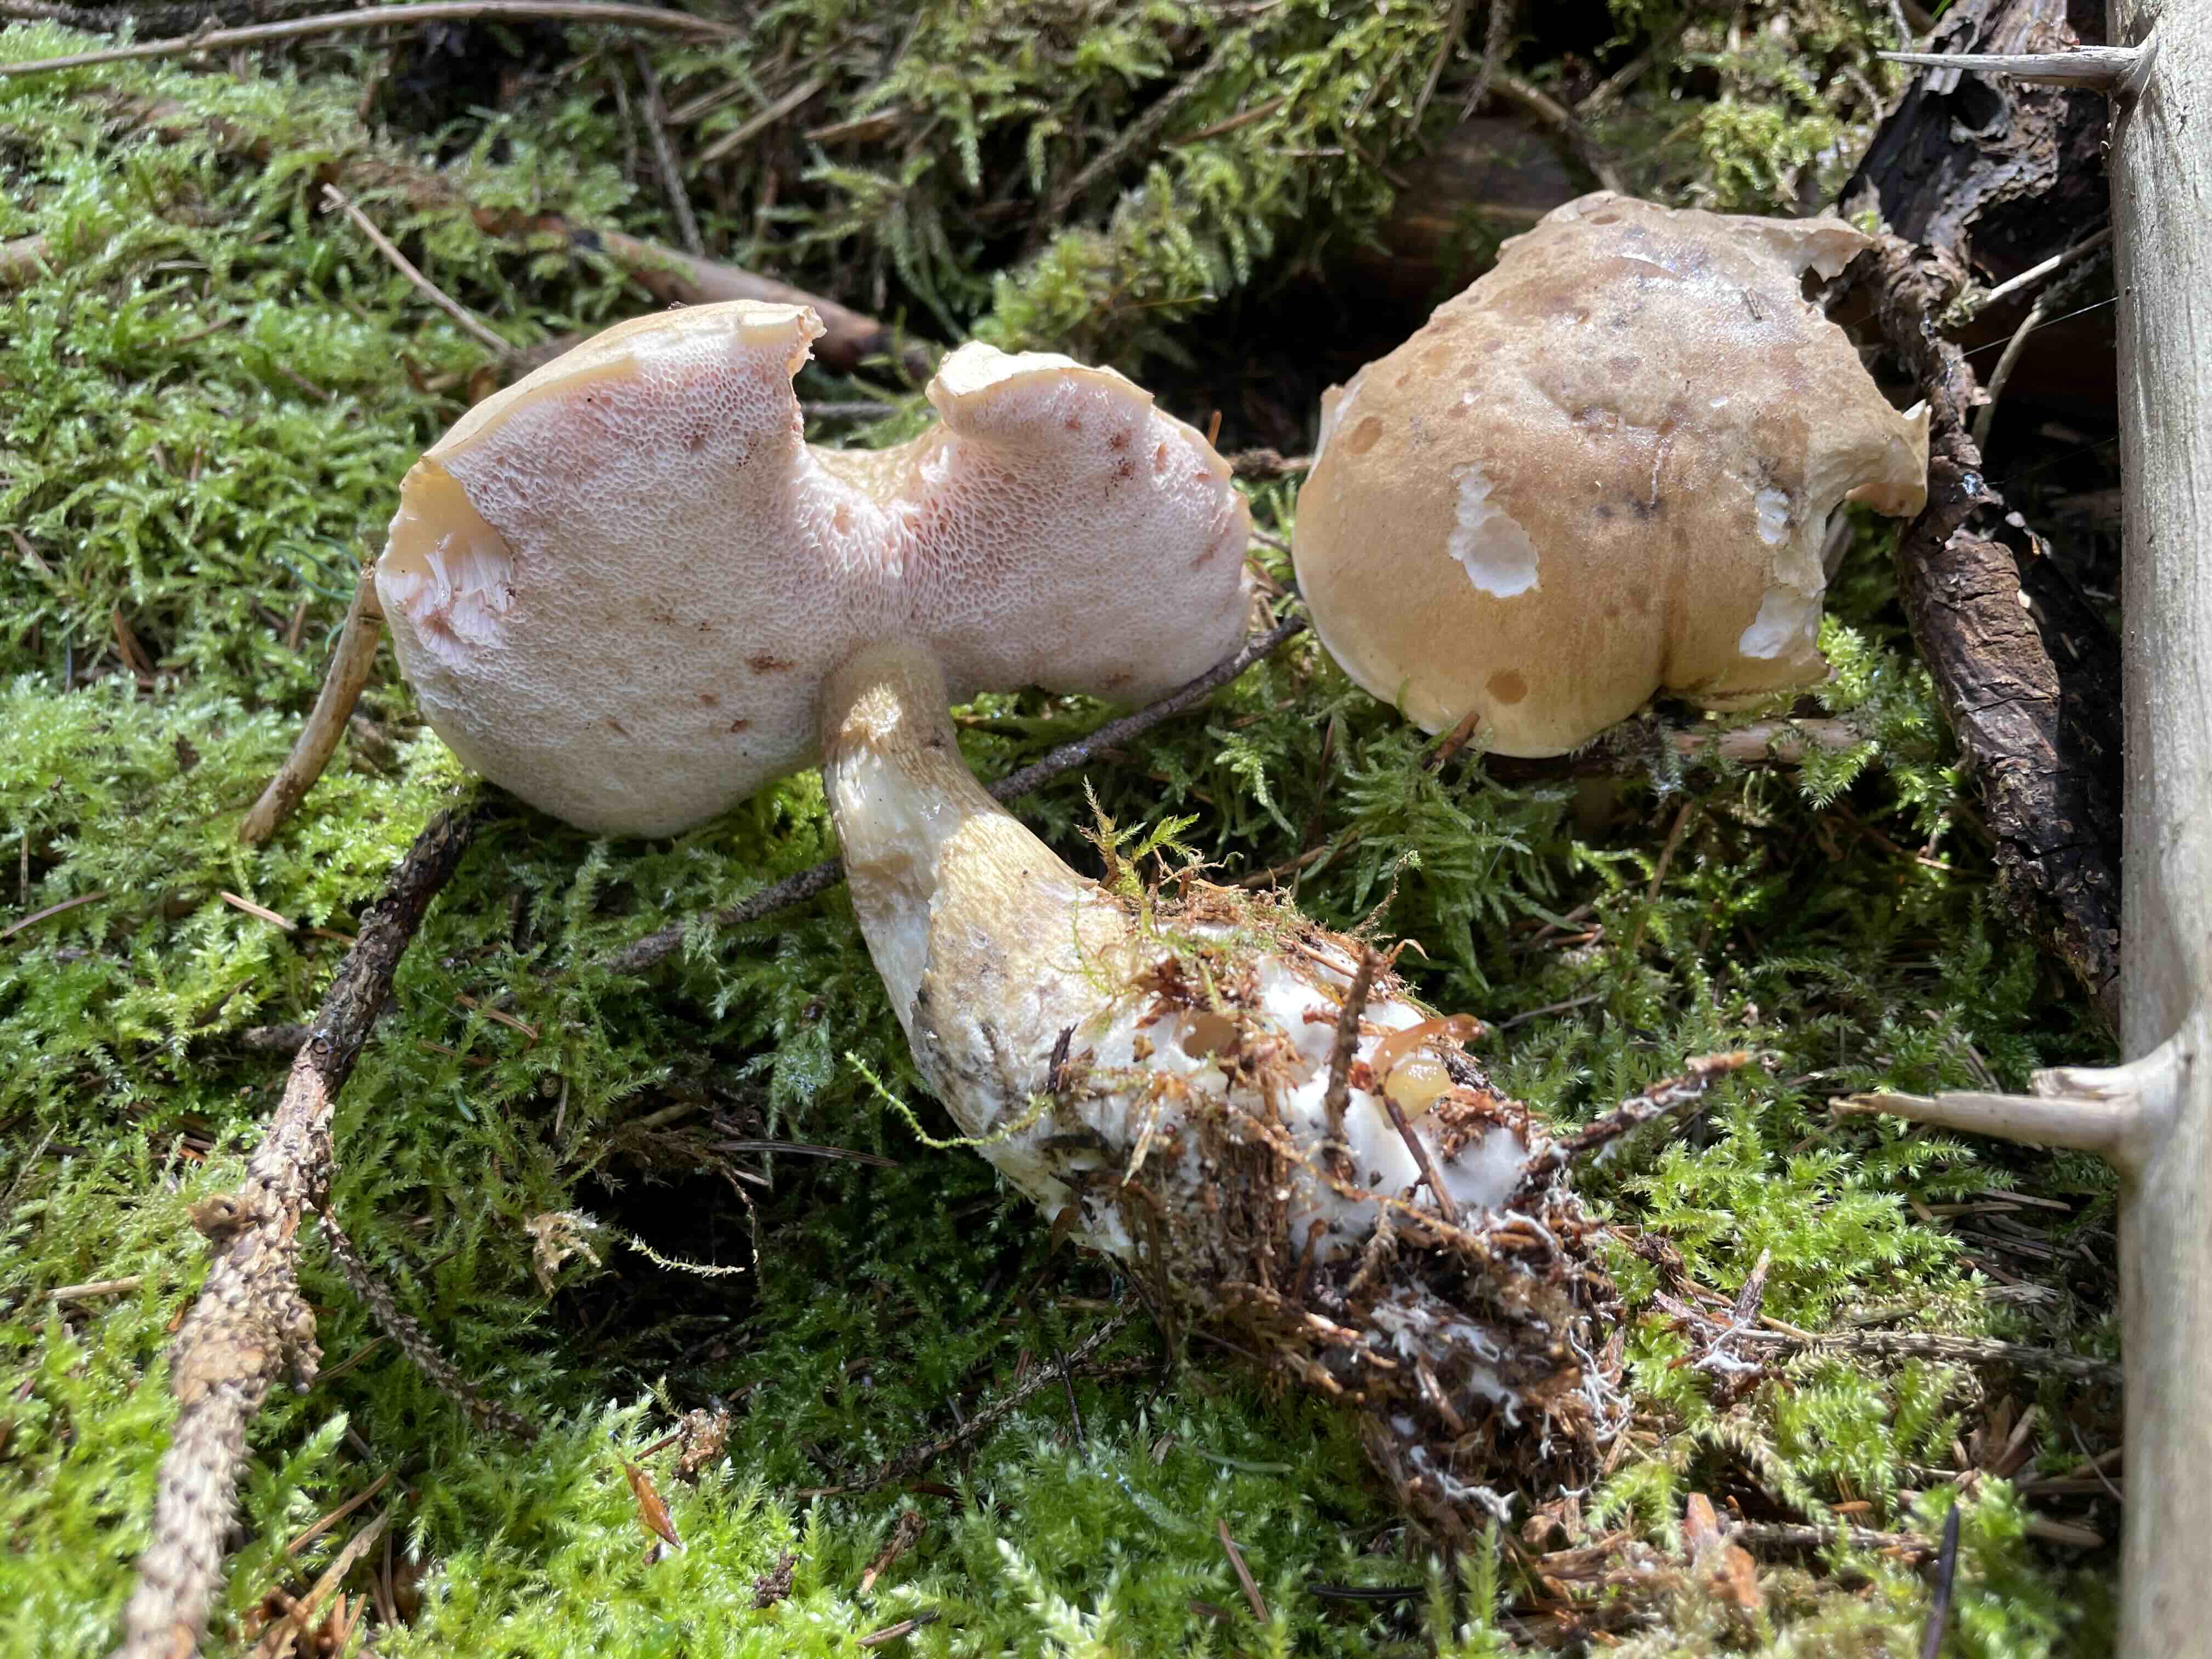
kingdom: Fungi
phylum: Basidiomycota
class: Agaricomycetes
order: Boletales
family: Boletaceae
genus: Tylopilus
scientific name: Tylopilus felleus
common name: galderørhat
